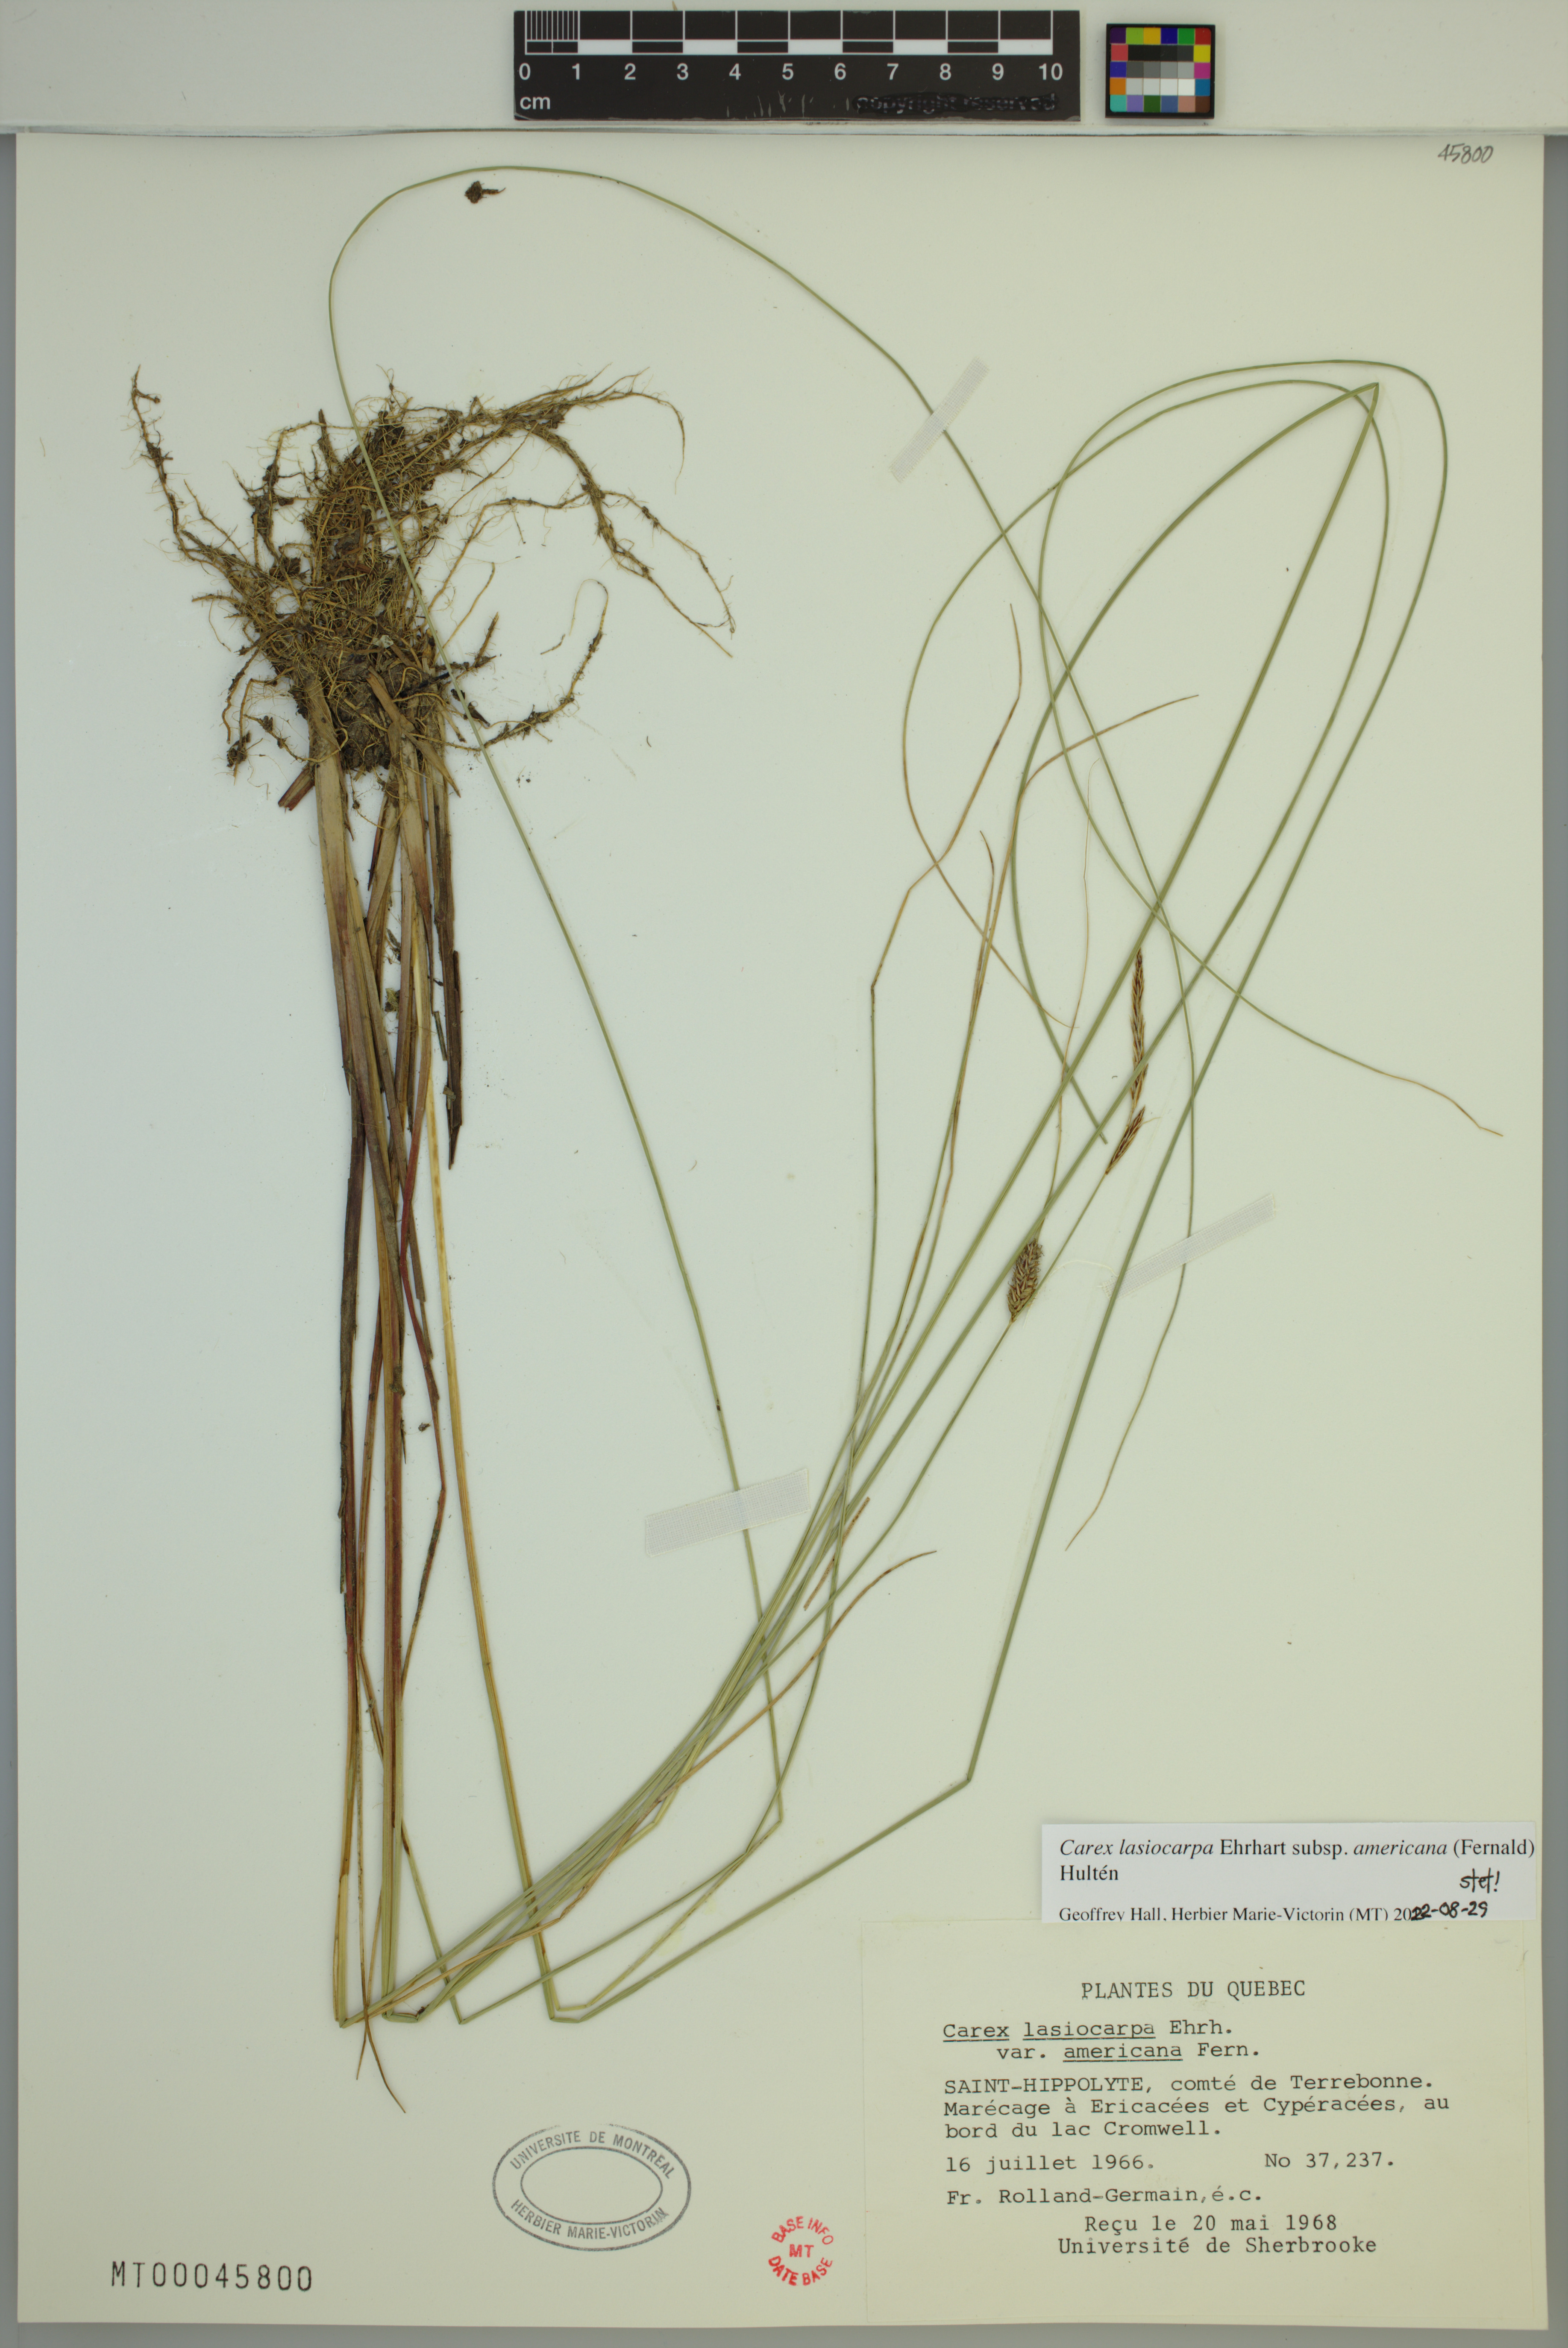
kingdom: Plantae
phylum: Tracheophyta
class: Liliopsida
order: Poales
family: Cyperaceae
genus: Carex
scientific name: Carex lasiocarpa
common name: Slender sedge
